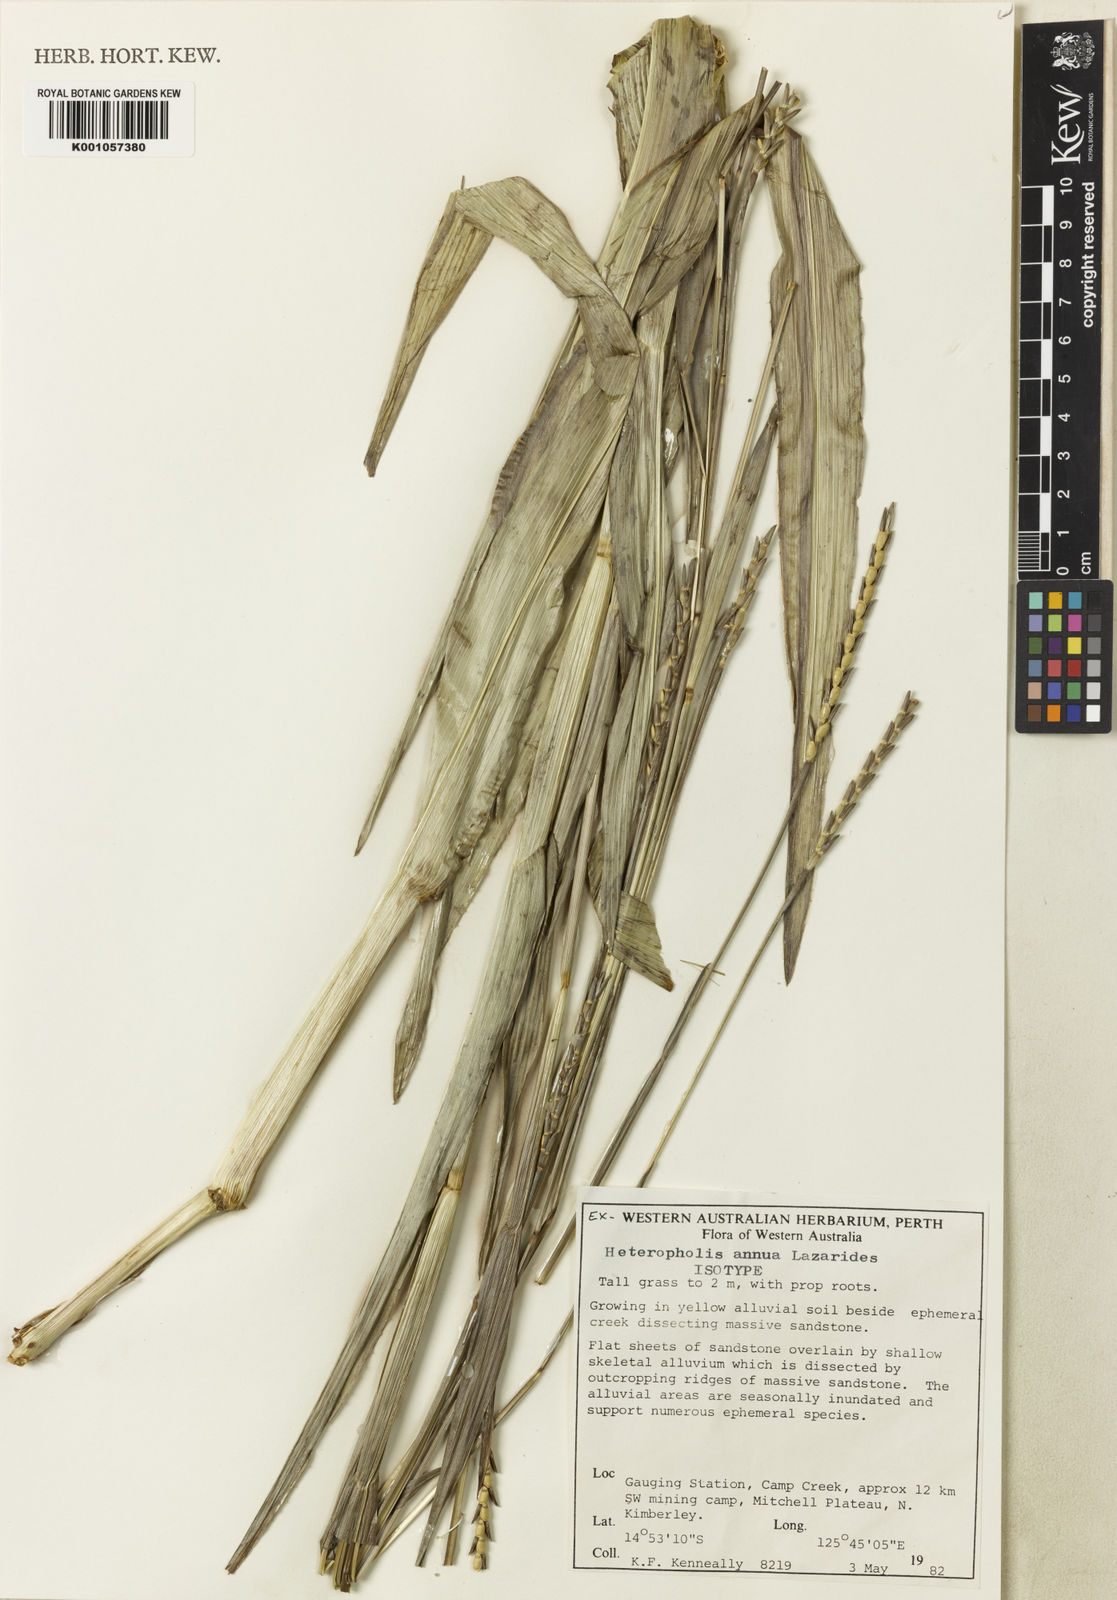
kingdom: Plantae
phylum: Tracheophyta
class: Liliopsida
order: Poales
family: Poaceae
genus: Mnesithea
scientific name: Mnesithea annua
